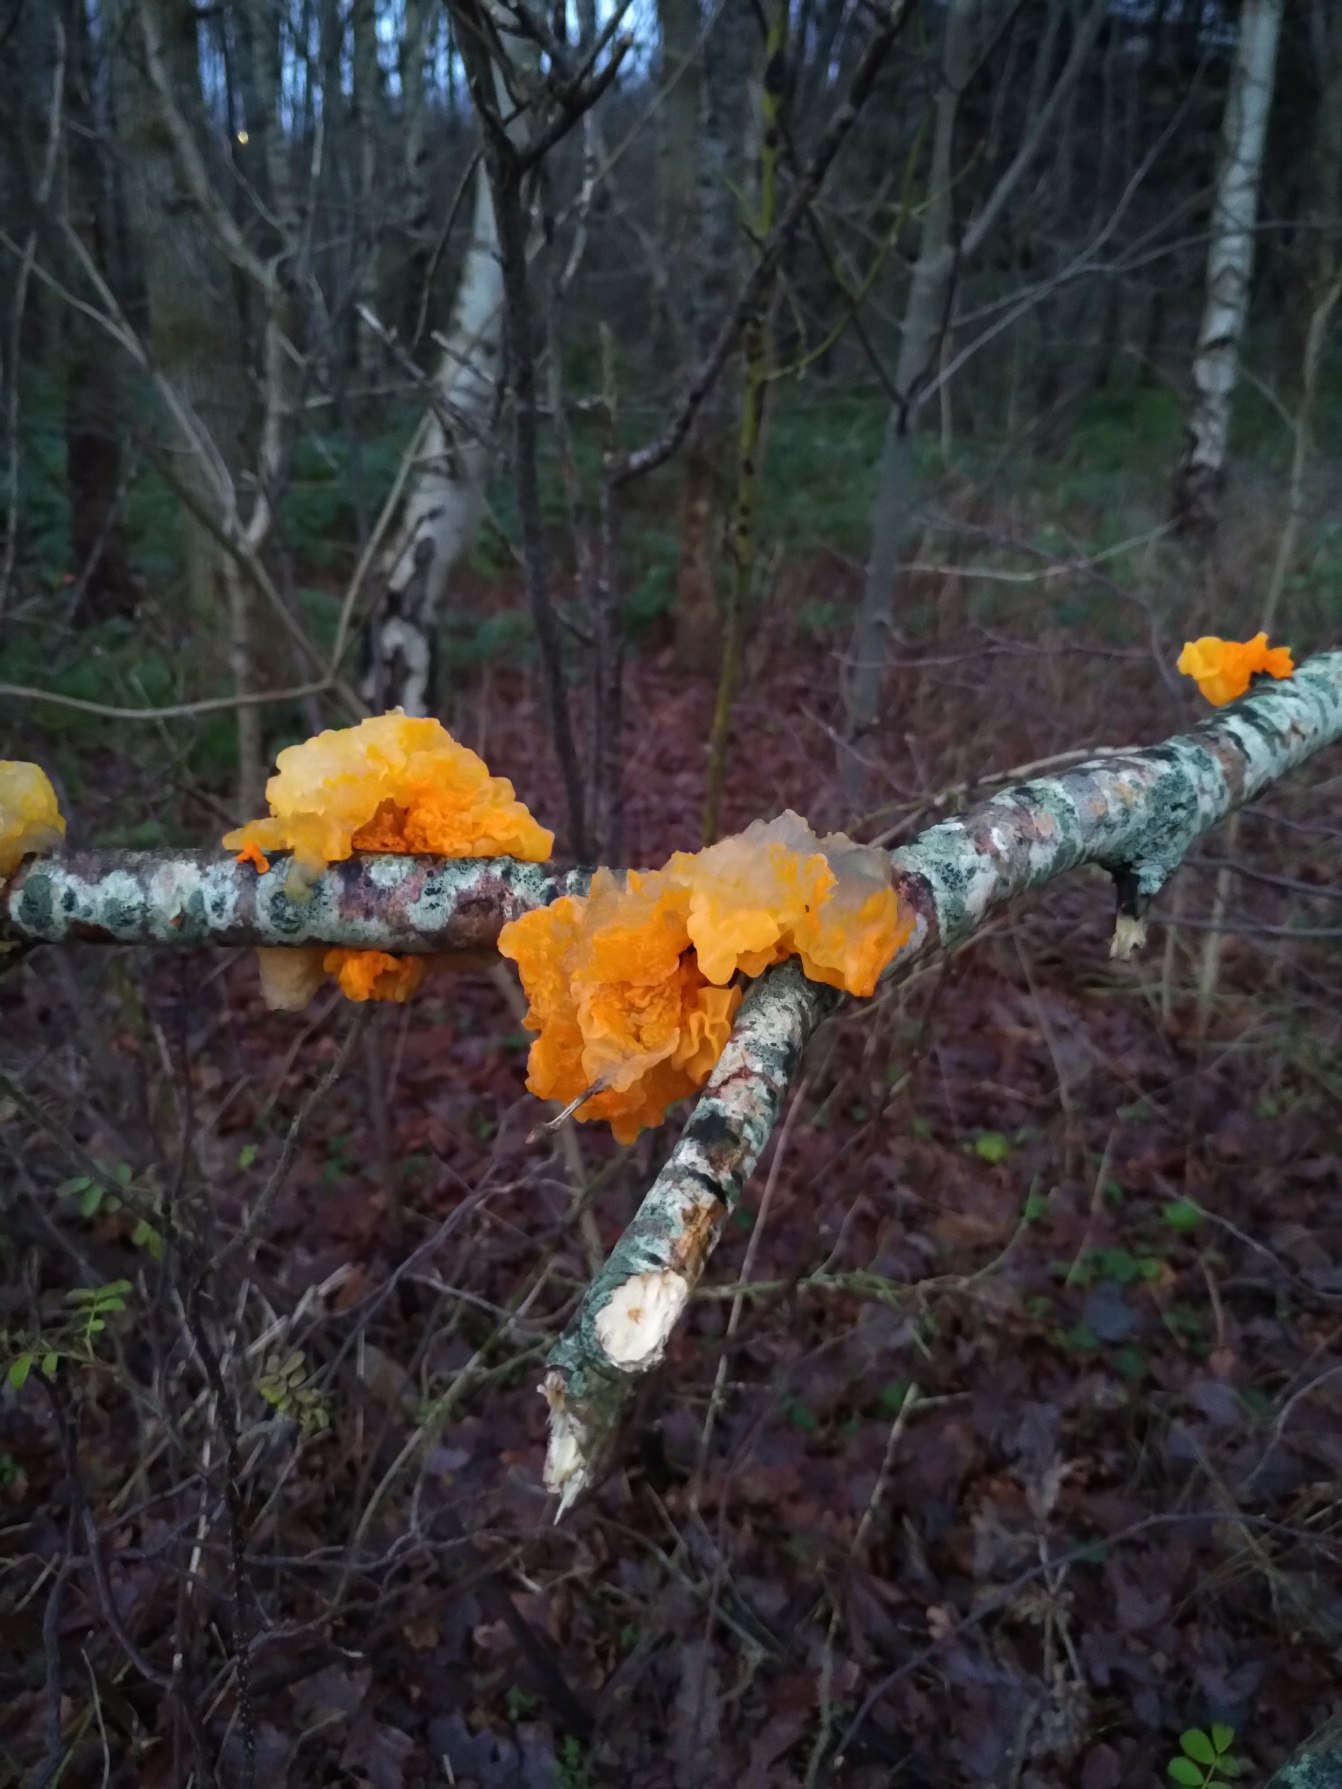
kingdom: Fungi
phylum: Basidiomycota
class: Tremellomycetes
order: Tremellales
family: Tremellaceae
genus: Tremella
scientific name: Tremella mesenterica
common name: Gul bævresvamp
